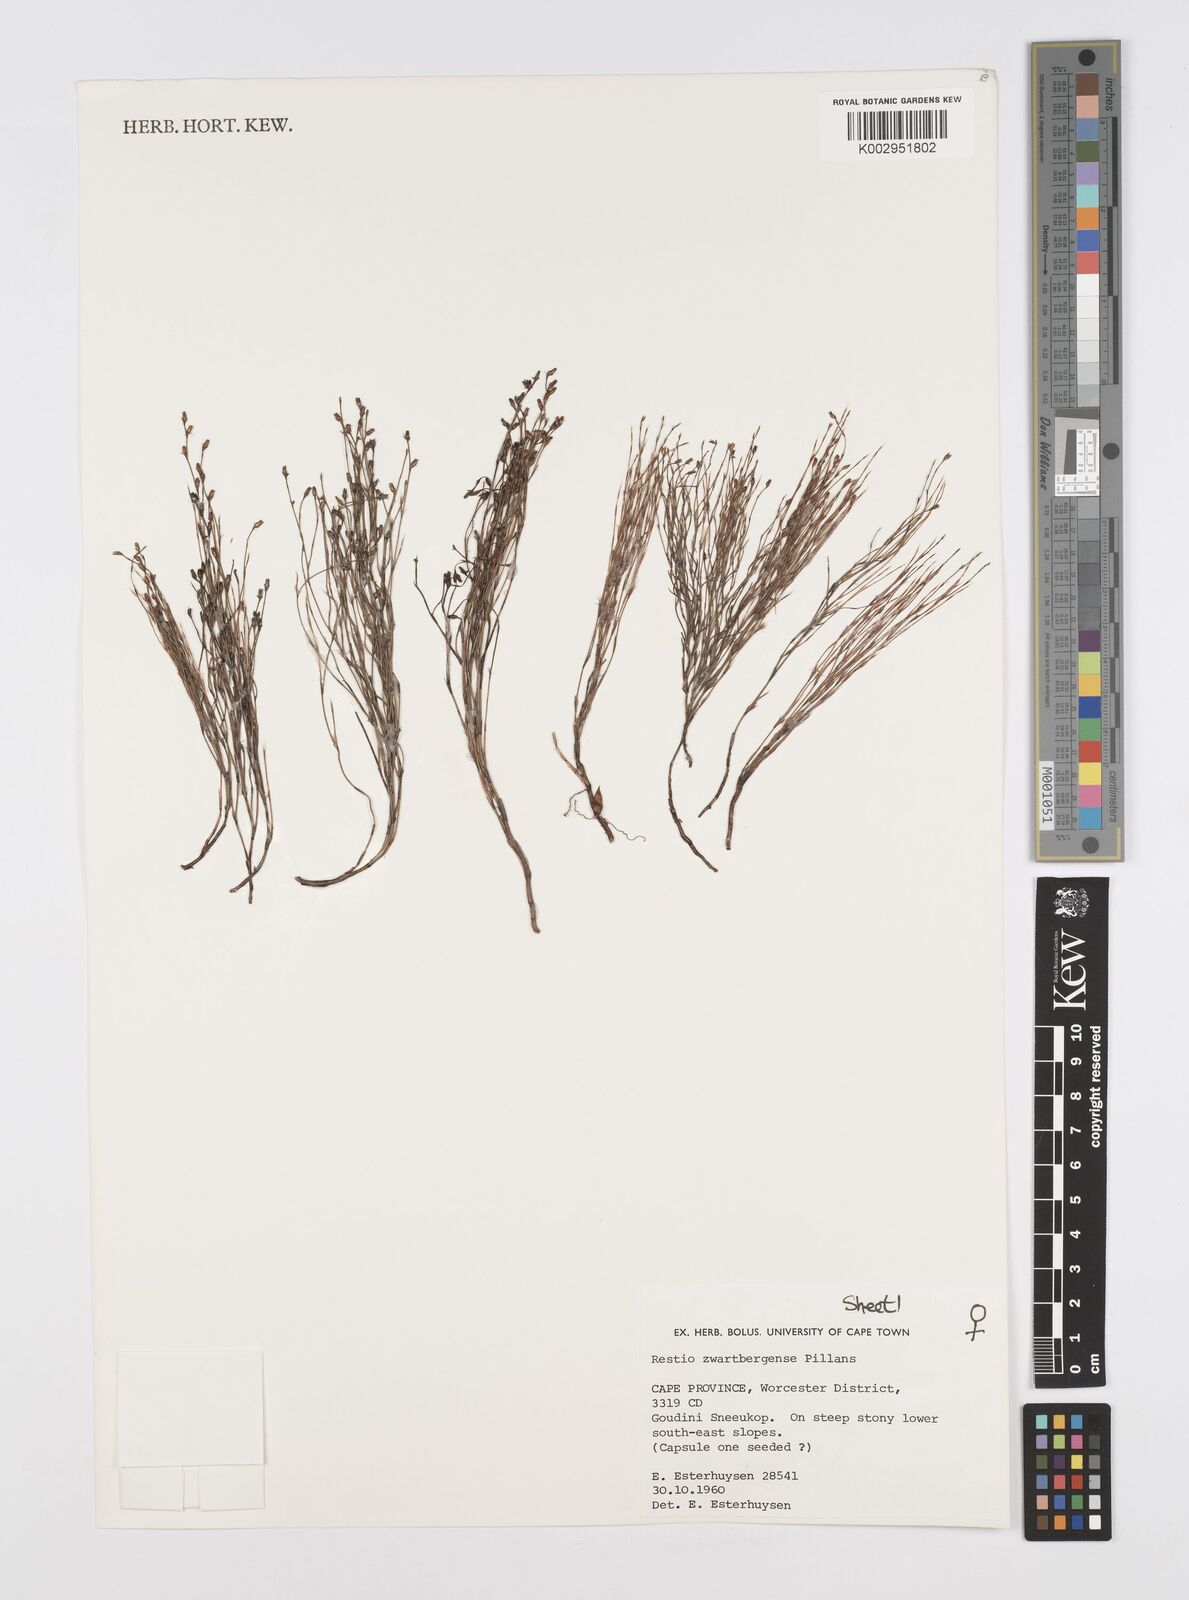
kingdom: Plantae
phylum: Tracheophyta
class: Liliopsida
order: Poales
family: Restionaceae
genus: Restio
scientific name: Restio zwartbergensis
